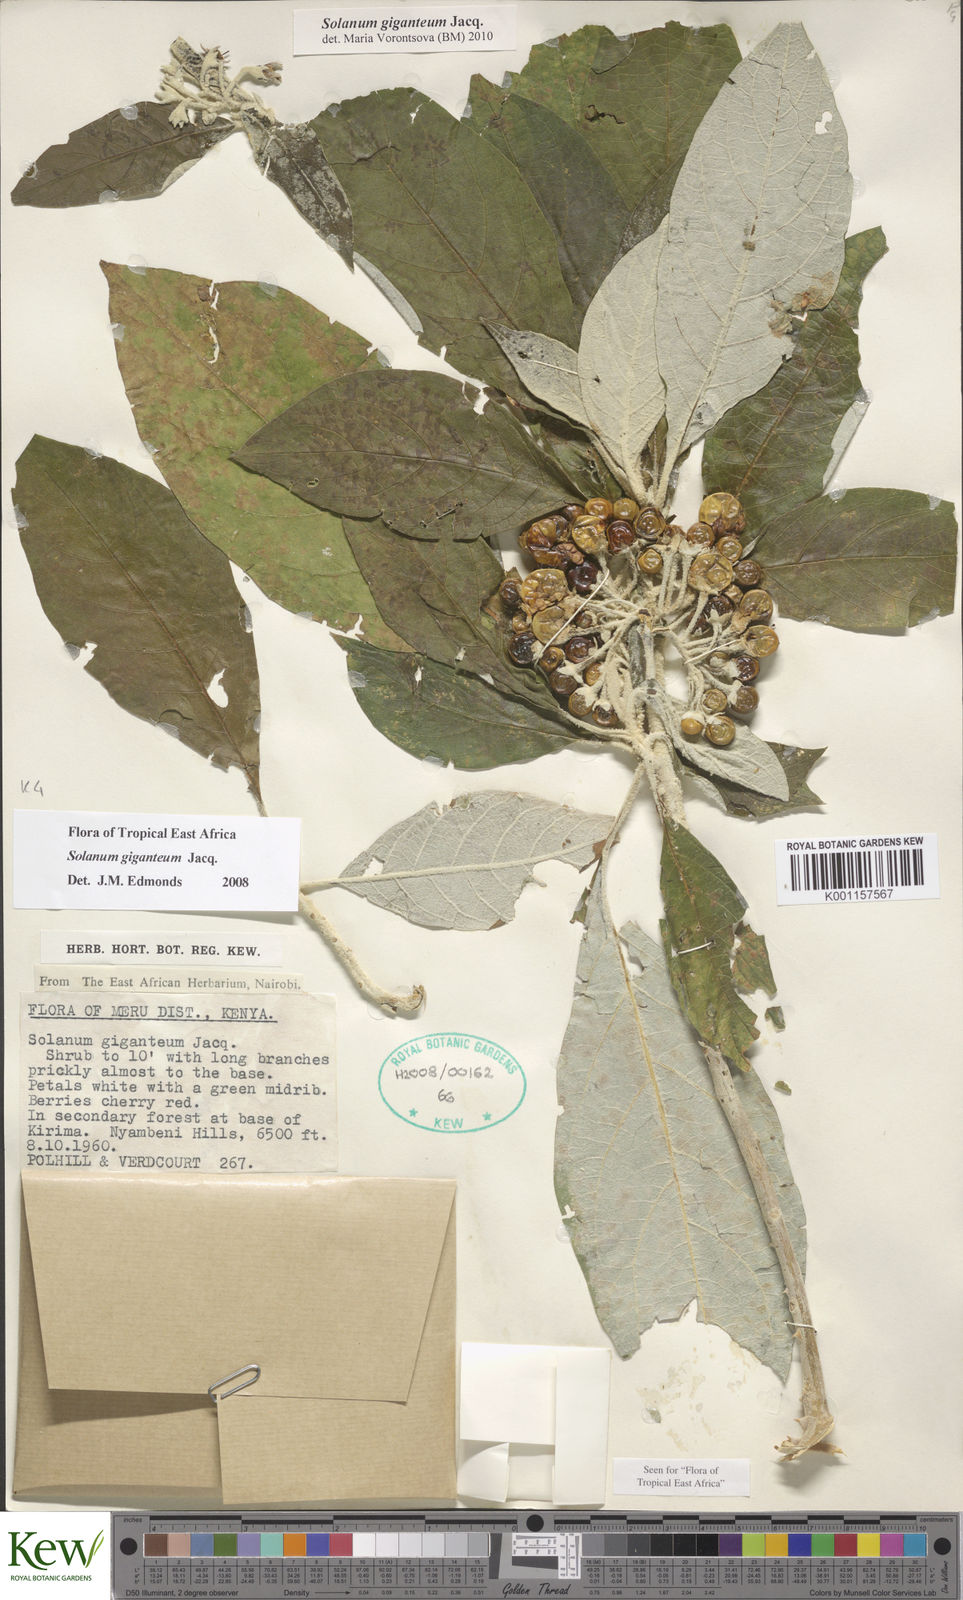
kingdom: Plantae
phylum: Tracheophyta
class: Magnoliopsida
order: Solanales
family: Solanaceae
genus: Solanum
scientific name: Solanum giganteum
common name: Healing-leaf-tree
